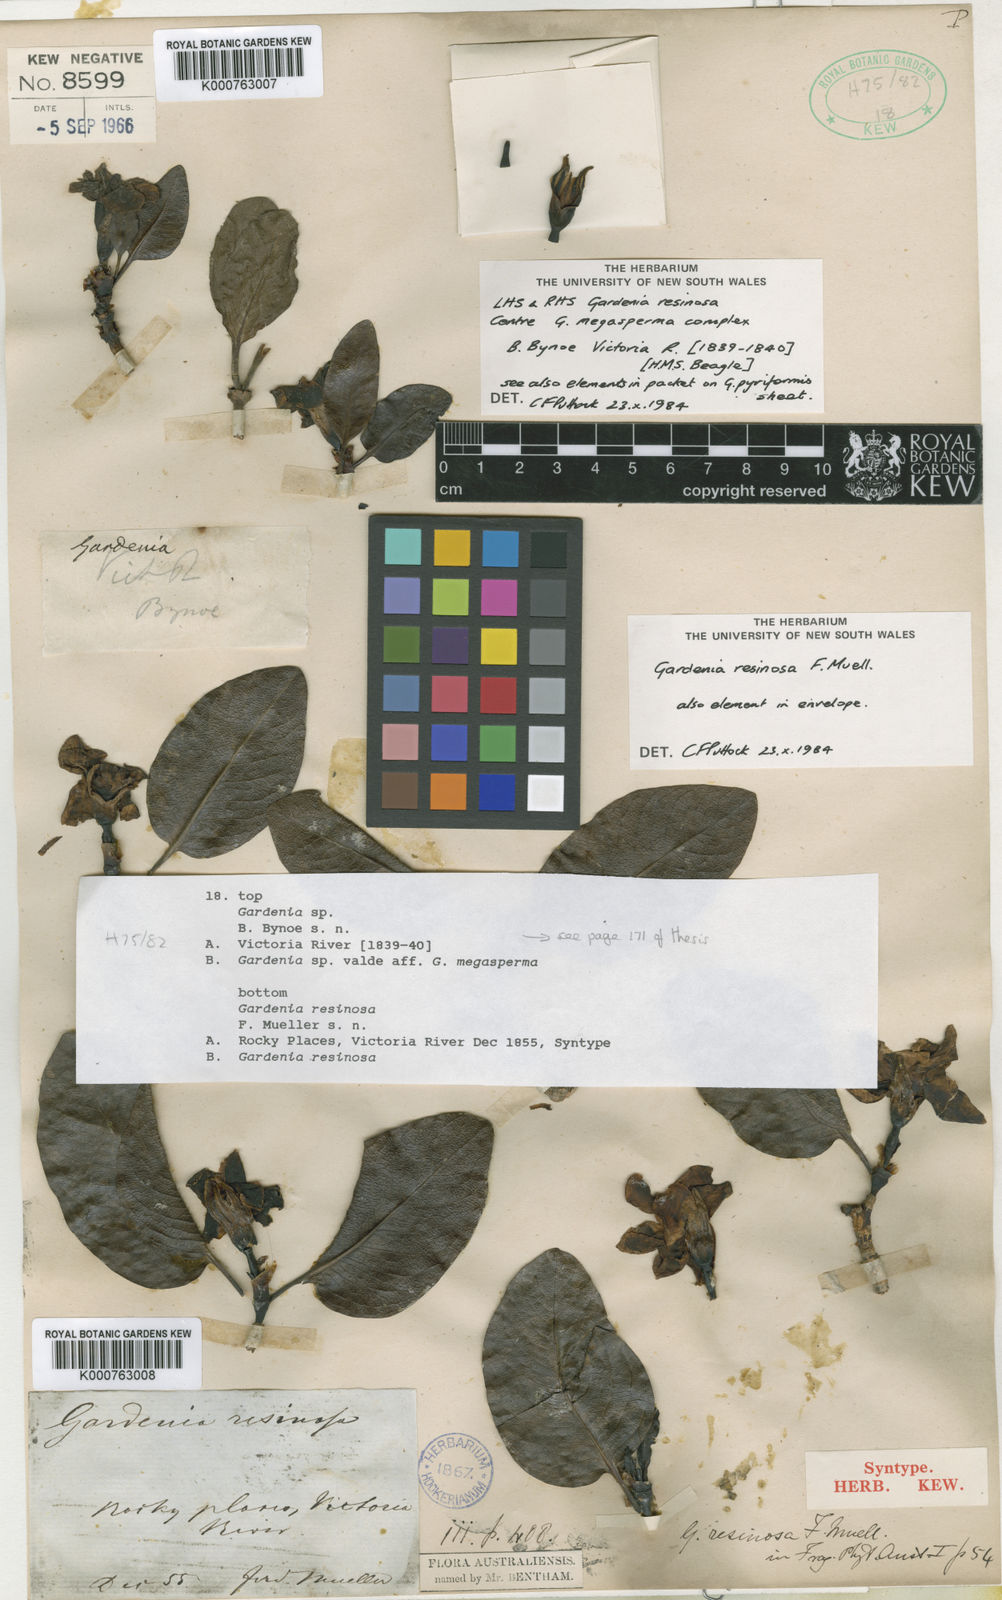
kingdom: Plantae
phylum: Tracheophyta
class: Magnoliopsida
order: Gentianales
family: Rubiaceae
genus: Gardenia
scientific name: Gardenia resinosa
